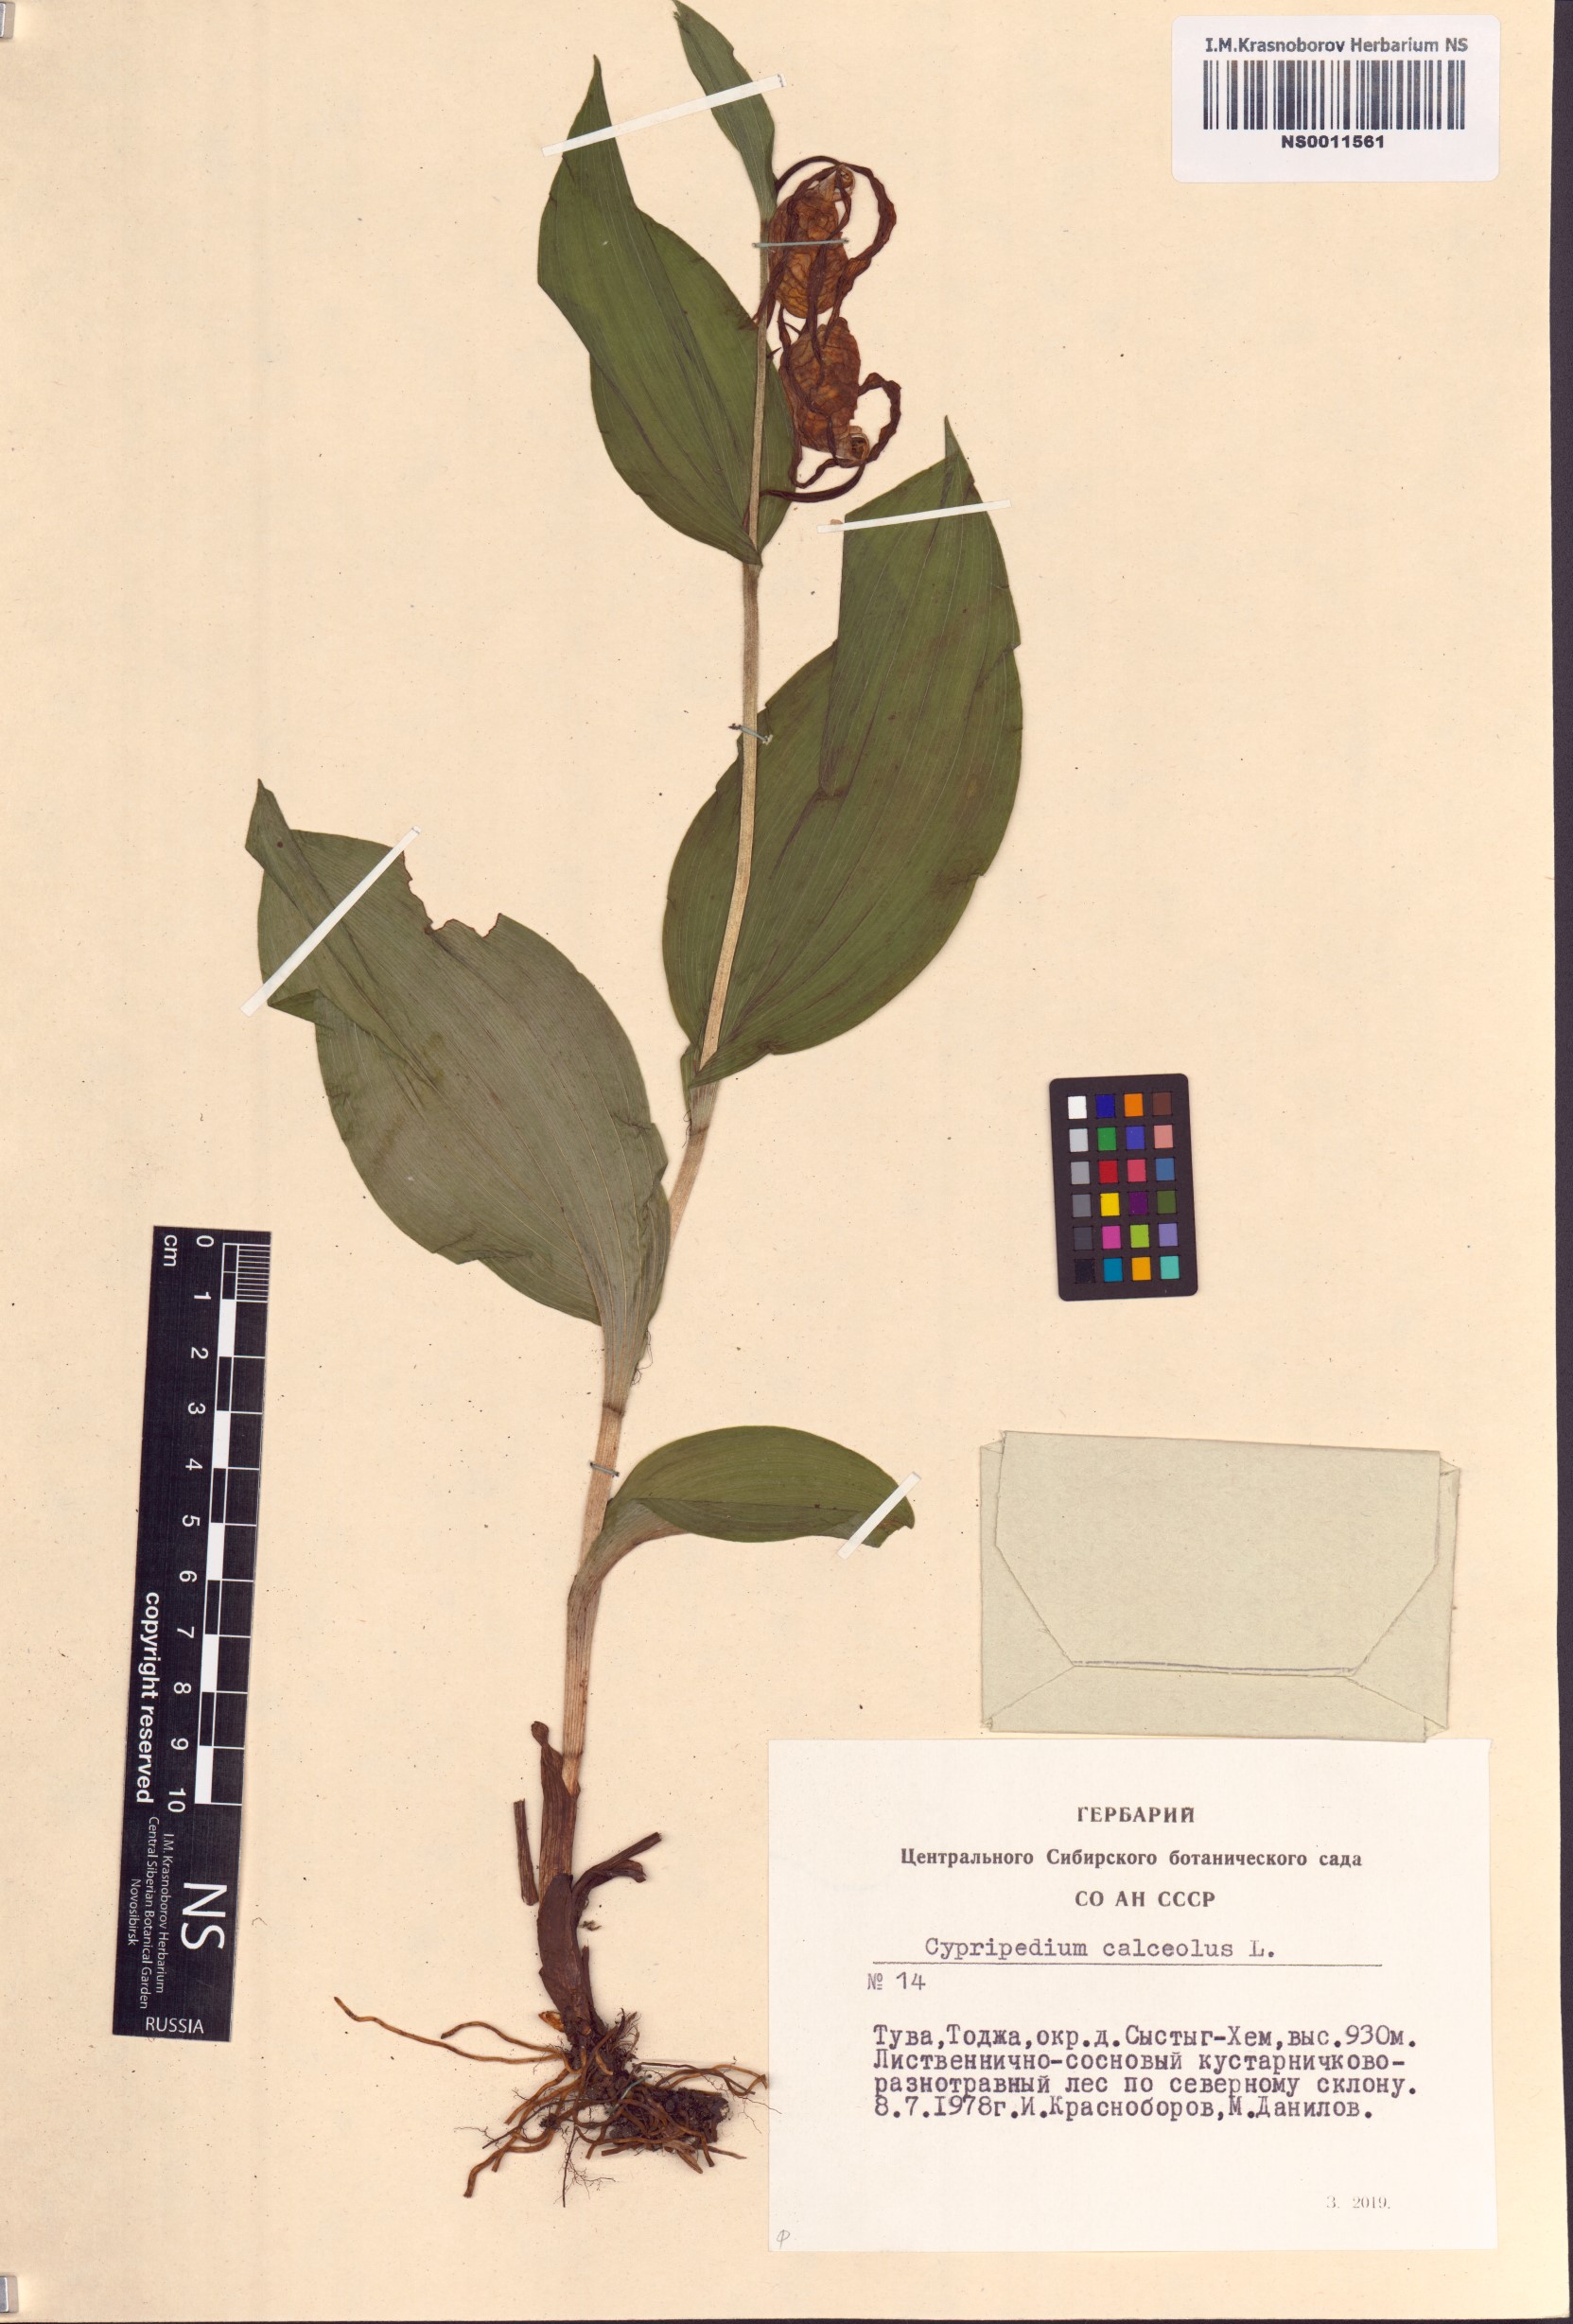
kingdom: Plantae
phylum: Tracheophyta
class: Liliopsida
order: Asparagales
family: Orchidaceae
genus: Cypripedium
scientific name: Cypripedium calceolus
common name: Lady's-slipper
